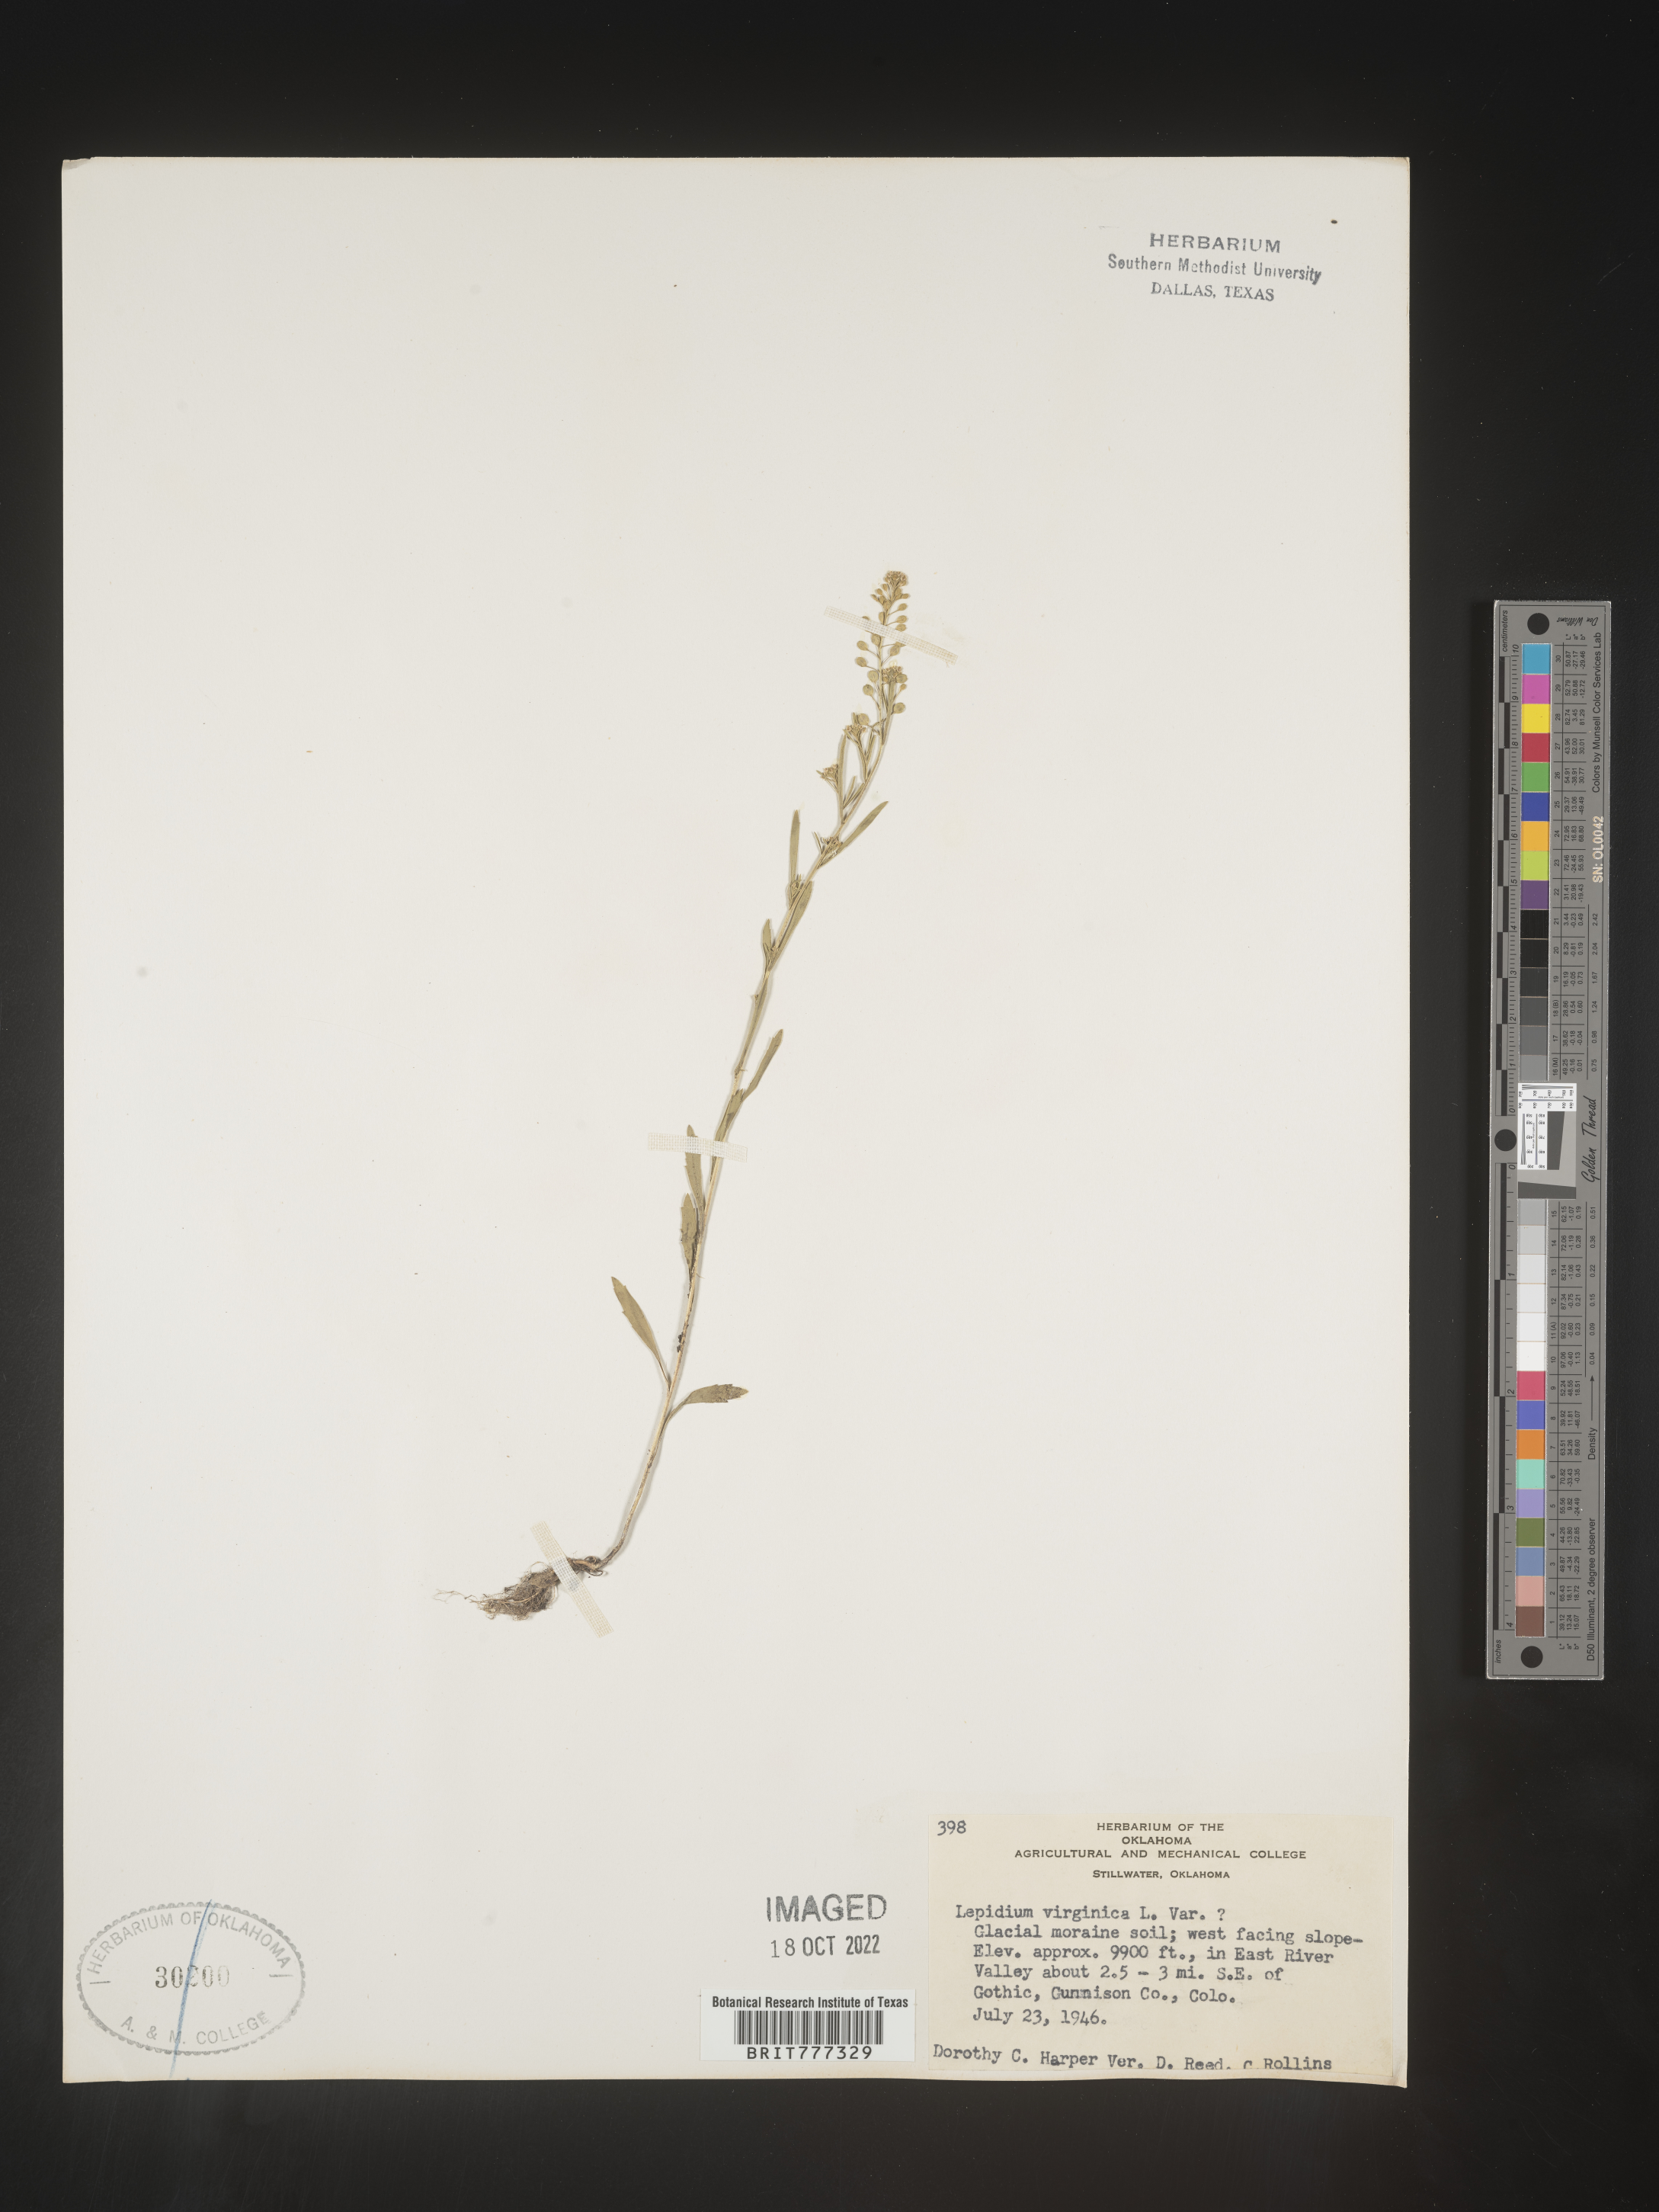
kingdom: Plantae
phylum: Tracheophyta
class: Magnoliopsida
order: Brassicales
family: Brassicaceae
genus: Lepidium
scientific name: Lepidium virginicum
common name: Least pepperwort
